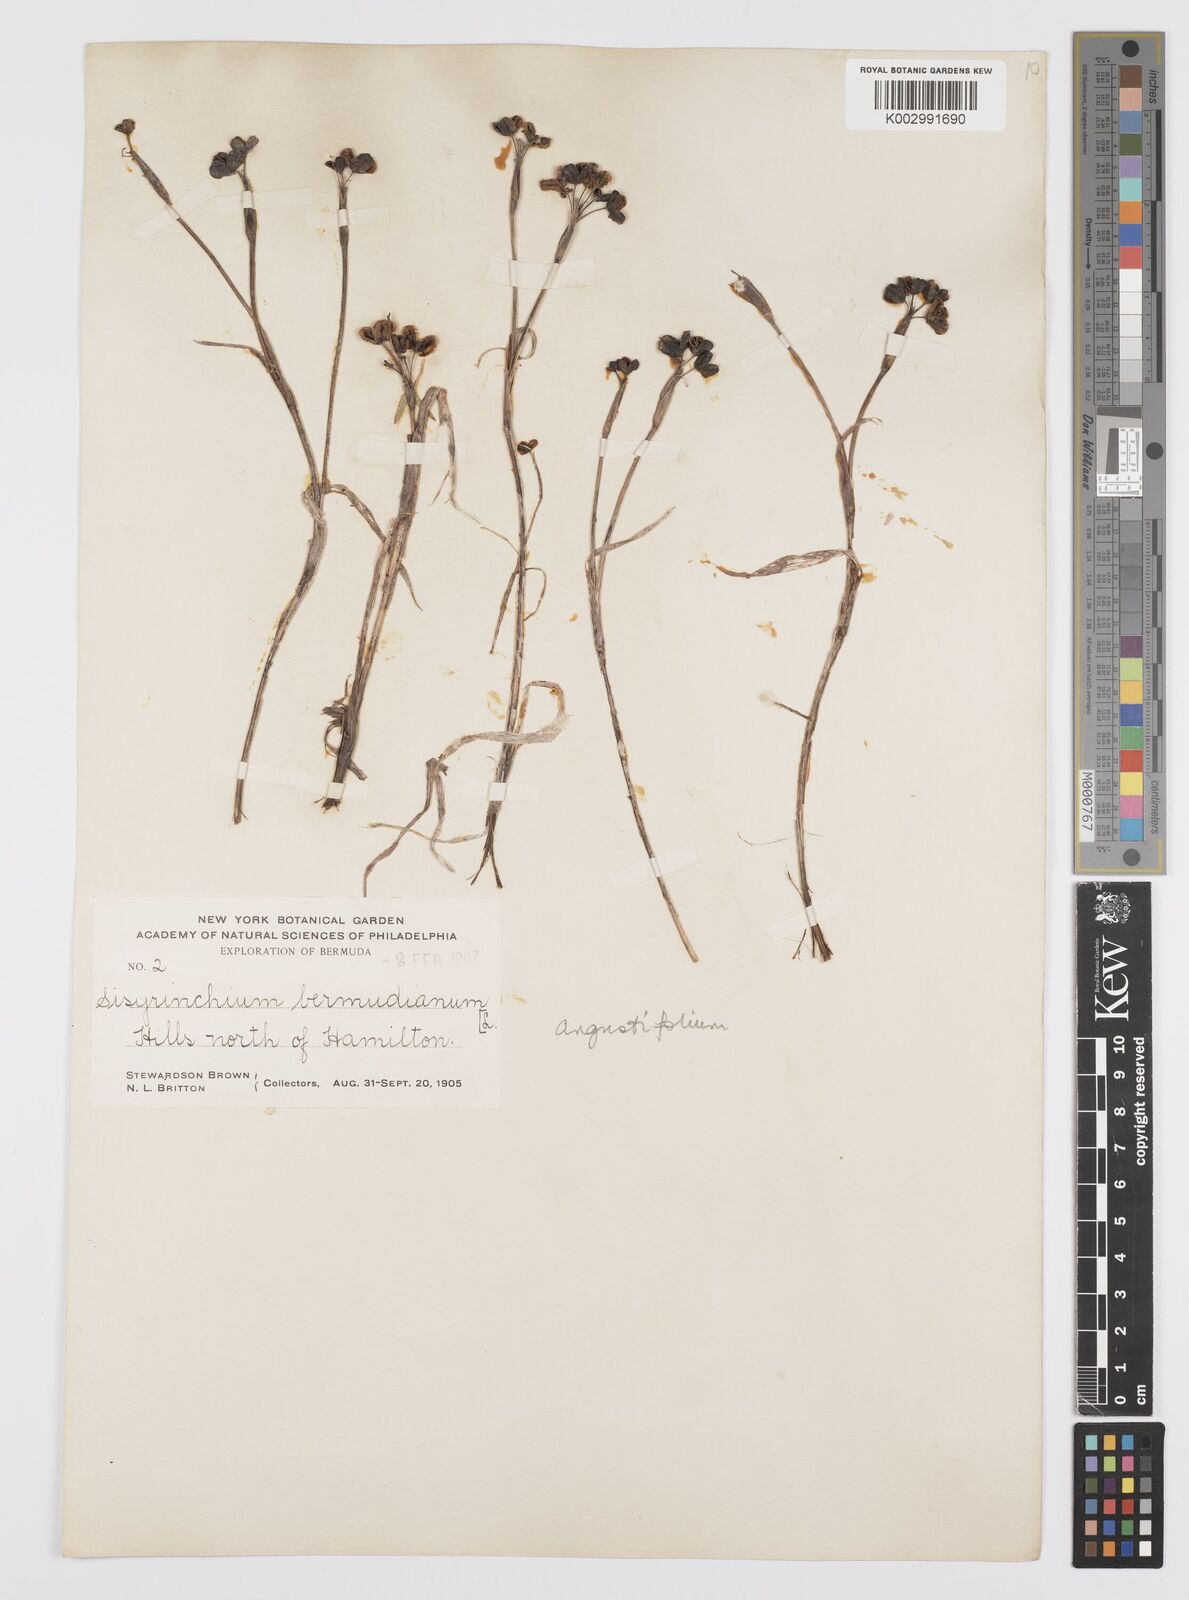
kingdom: Plantae
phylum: Tracheophyta
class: Liliopsida
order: Asparagales
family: Iridaceae
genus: Sisyrinchium
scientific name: Sisyrinchium
